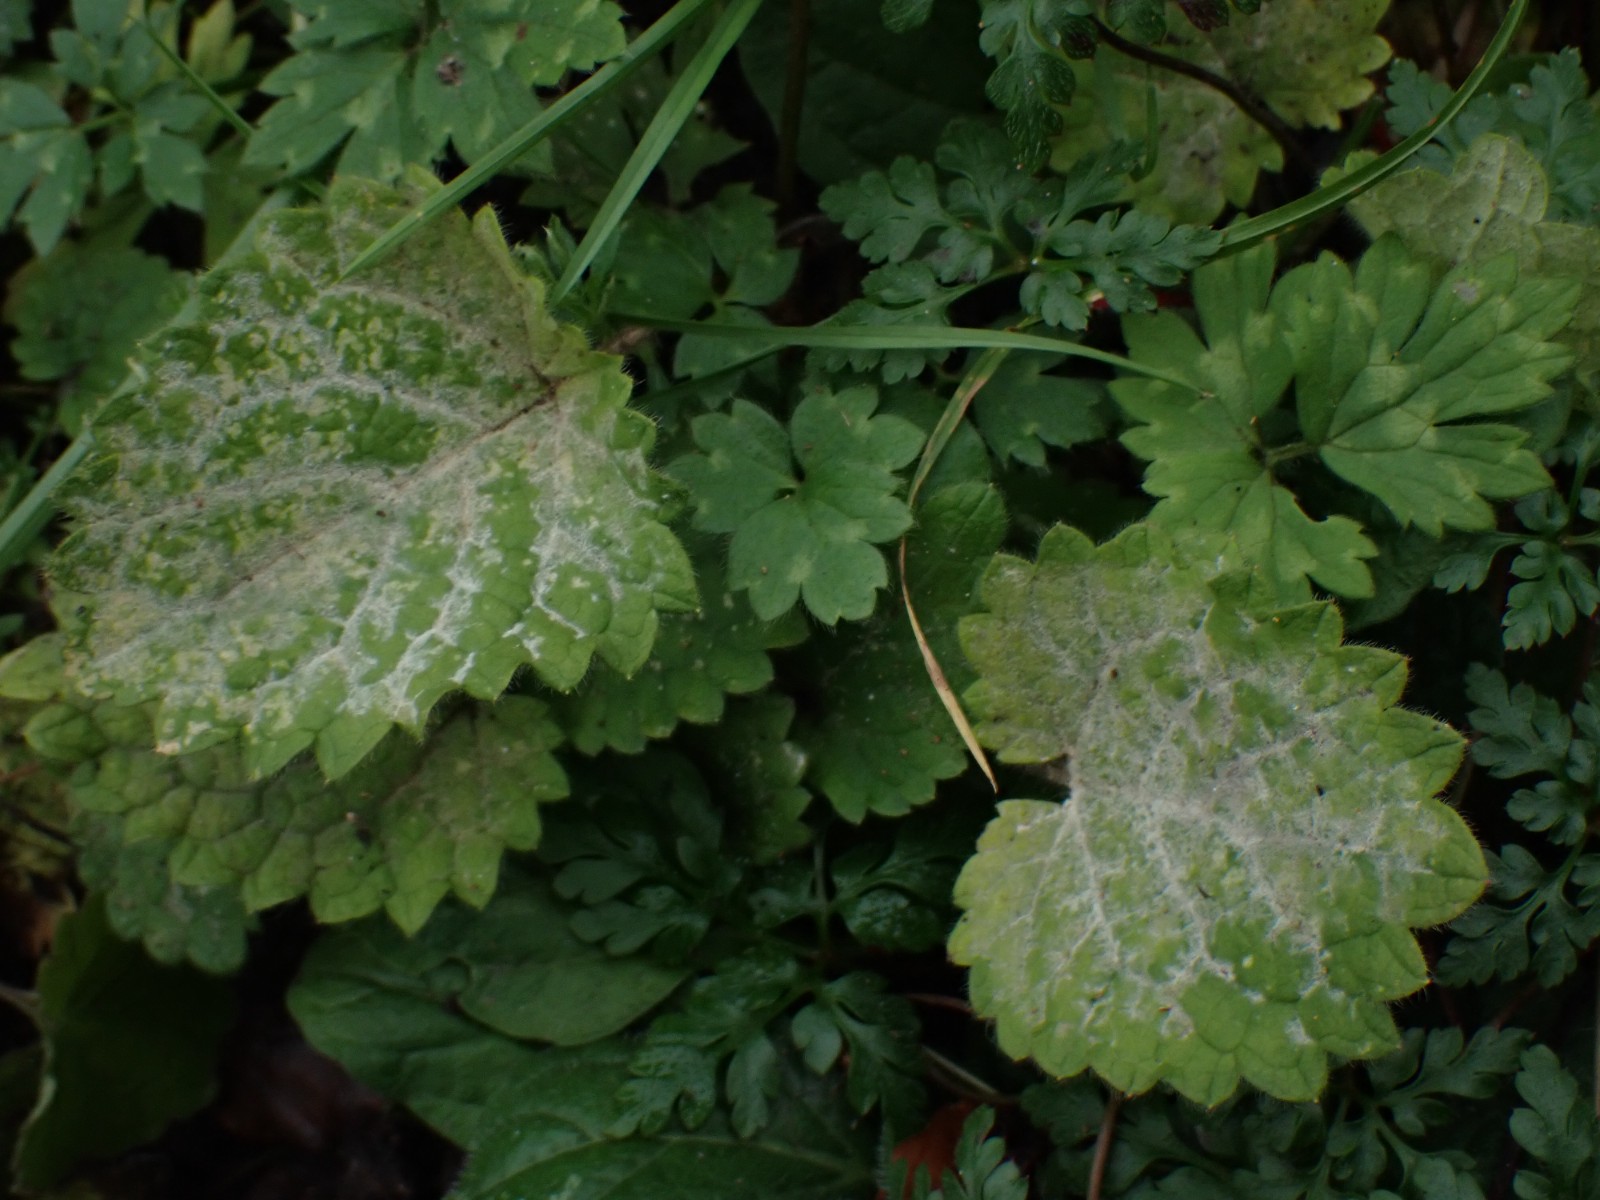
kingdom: Fungi
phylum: Ascomycota
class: Leotiomycetes
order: Helotiales
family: Erysiphaceae
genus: Neoerysiphe
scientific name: Neoerysiphe galeopsidis
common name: Mint mildew
